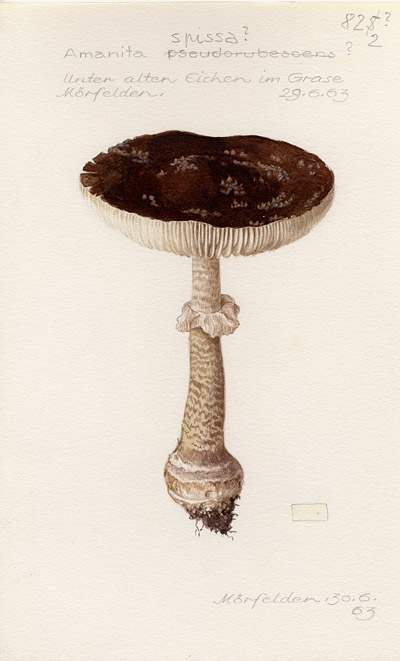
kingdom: Fungi
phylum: Basidiomycota
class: Agaricomycetes
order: Agaricales
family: Amanitaceae
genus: Amanita
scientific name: Amanita excelsa
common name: European false blusher
